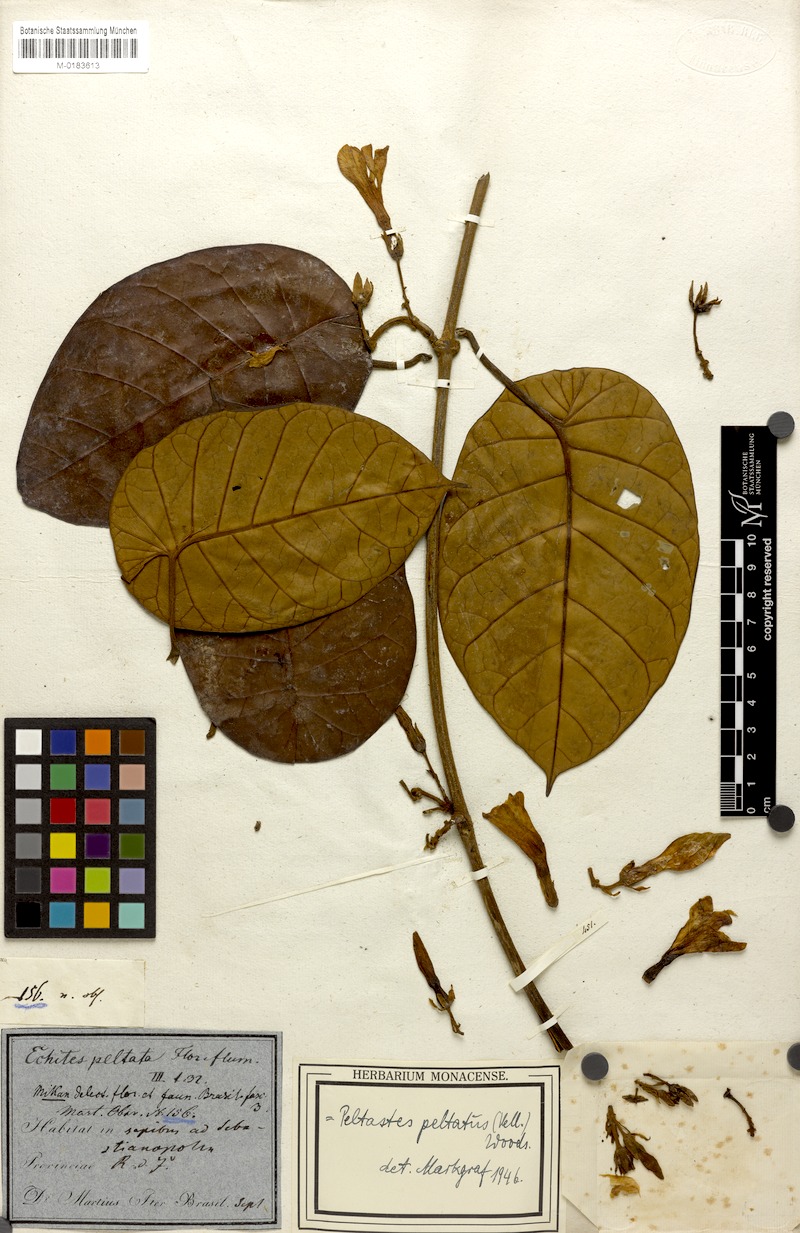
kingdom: Plantae
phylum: Tracheophyta
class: Magnoliopsida
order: Gentianales
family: Apocynaceae
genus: Macropharynx
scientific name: Macropharynx peltata
